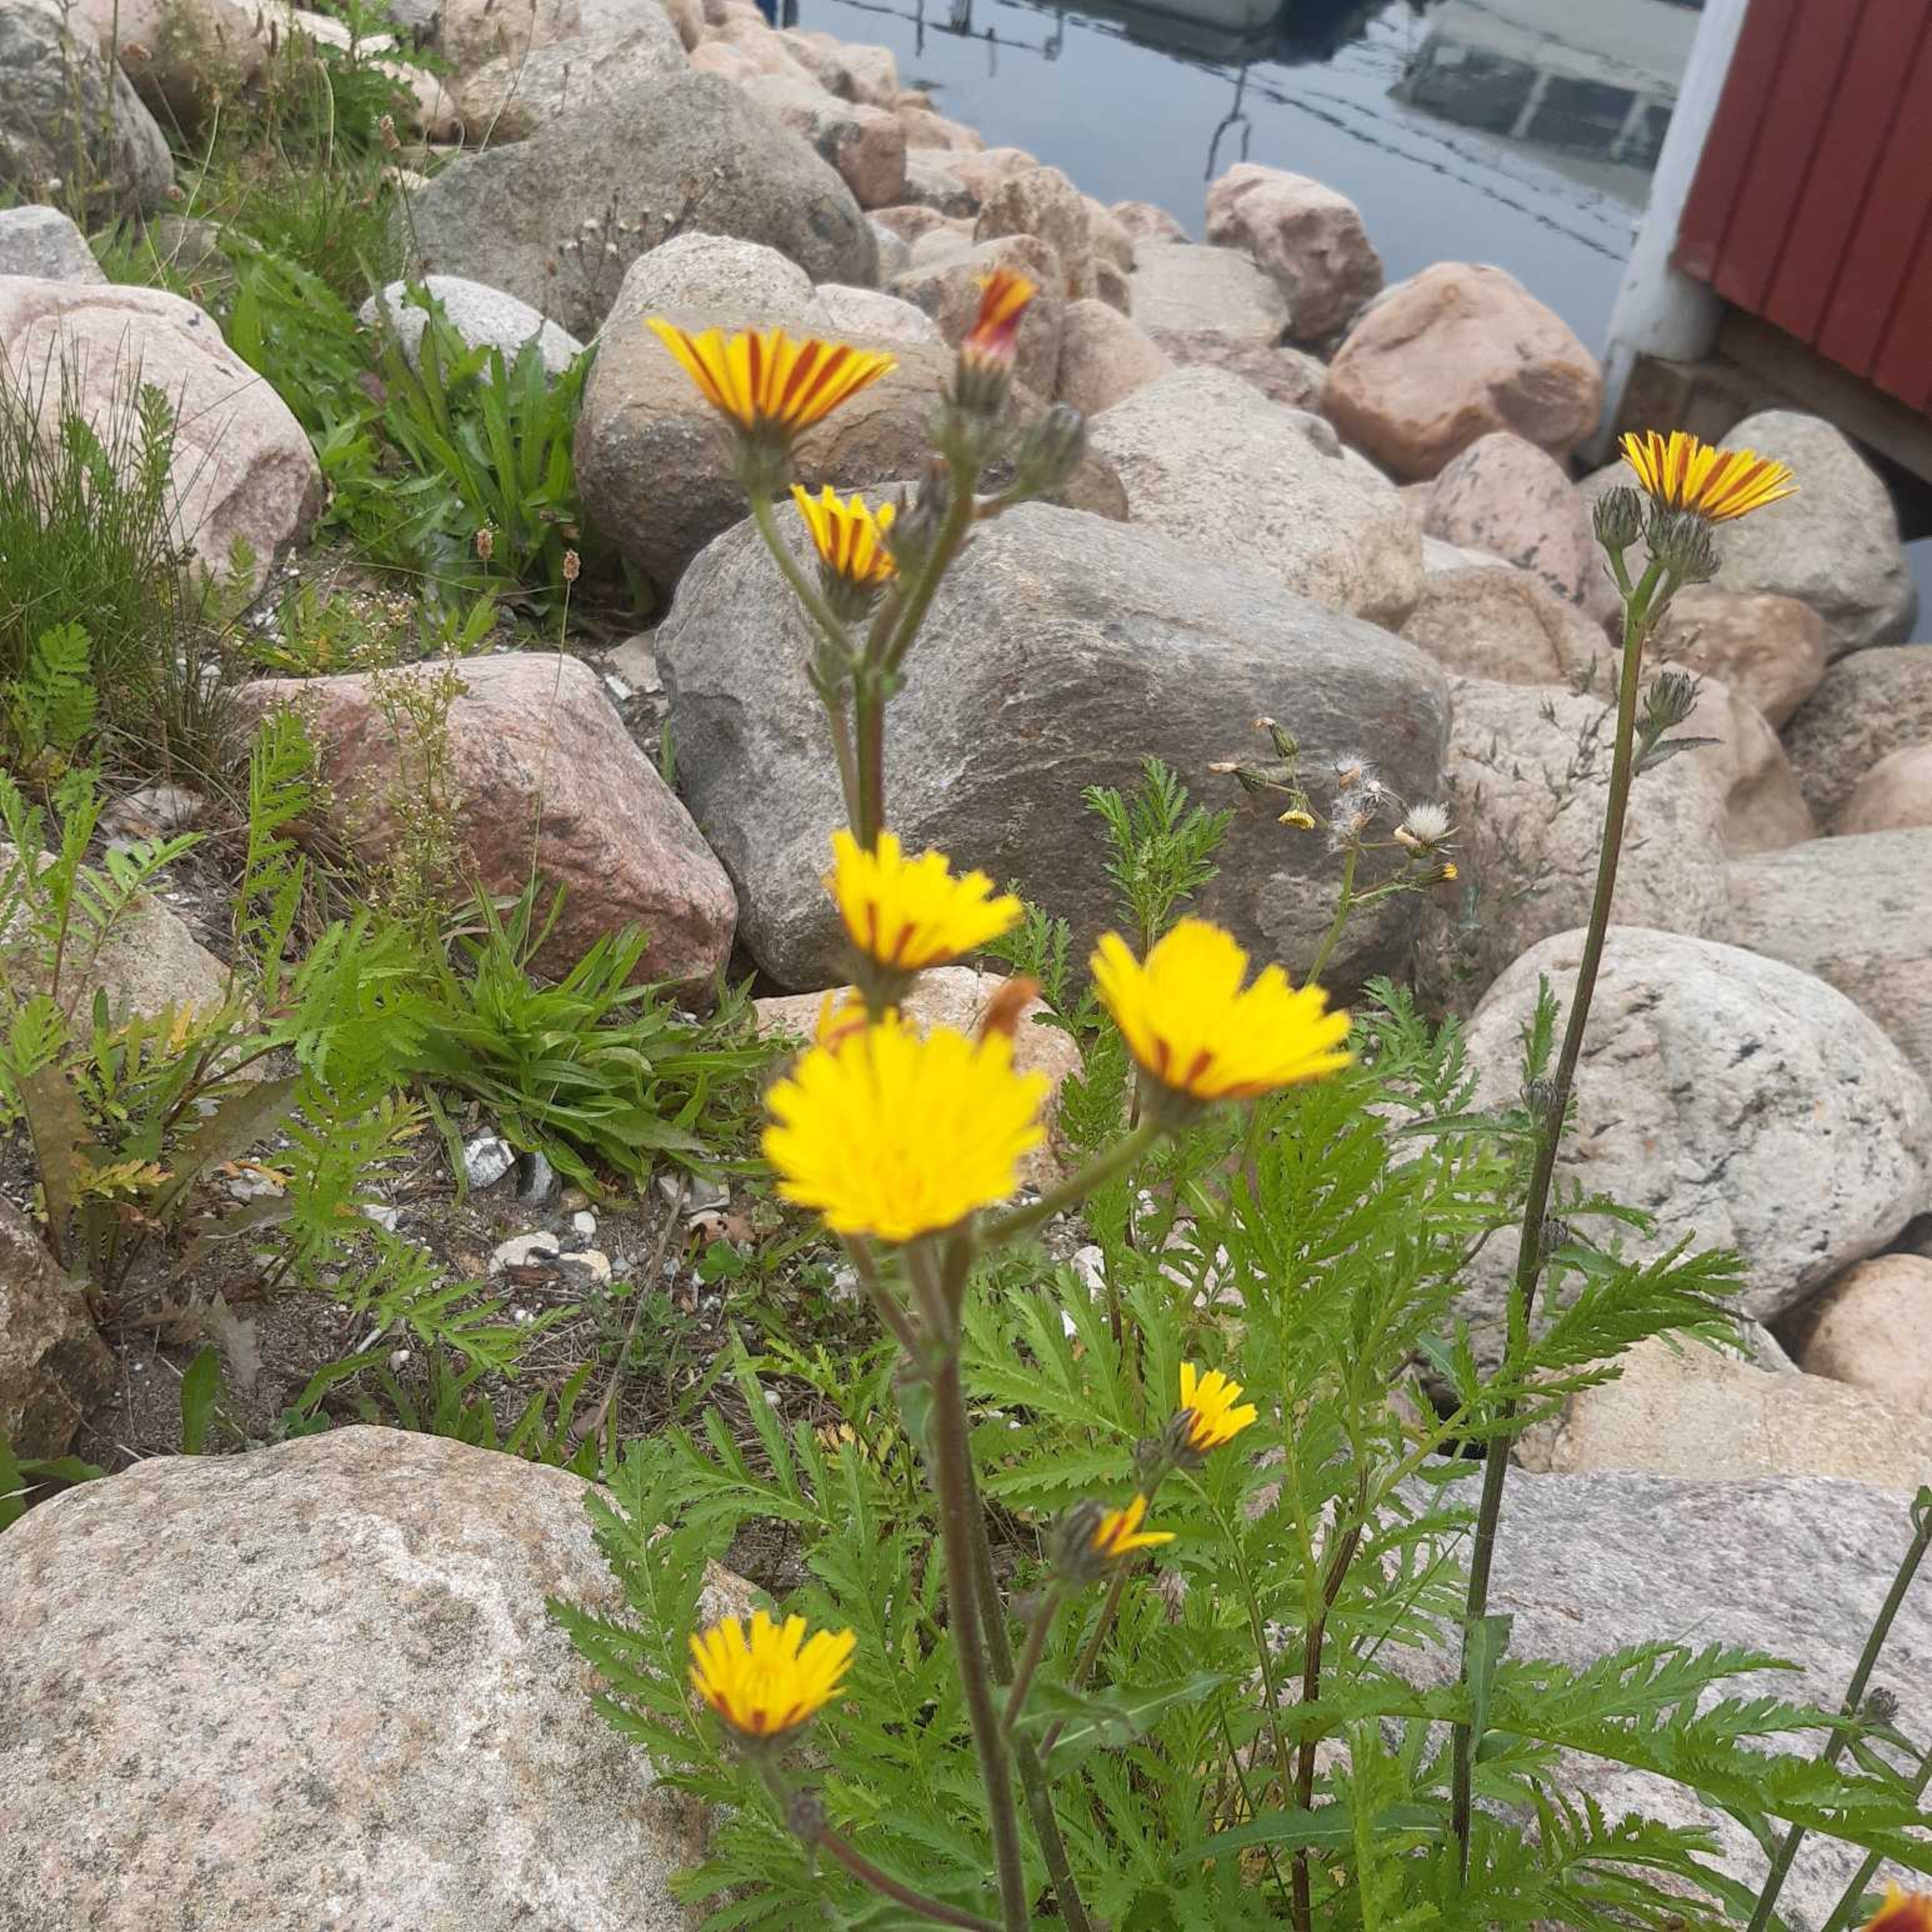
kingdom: Plantae
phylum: Tracheophyta
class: Magnoliopsida
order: Asterales
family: Asteraceae
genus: Picris
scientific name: Picris hieracioides
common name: Ru bittermælk
